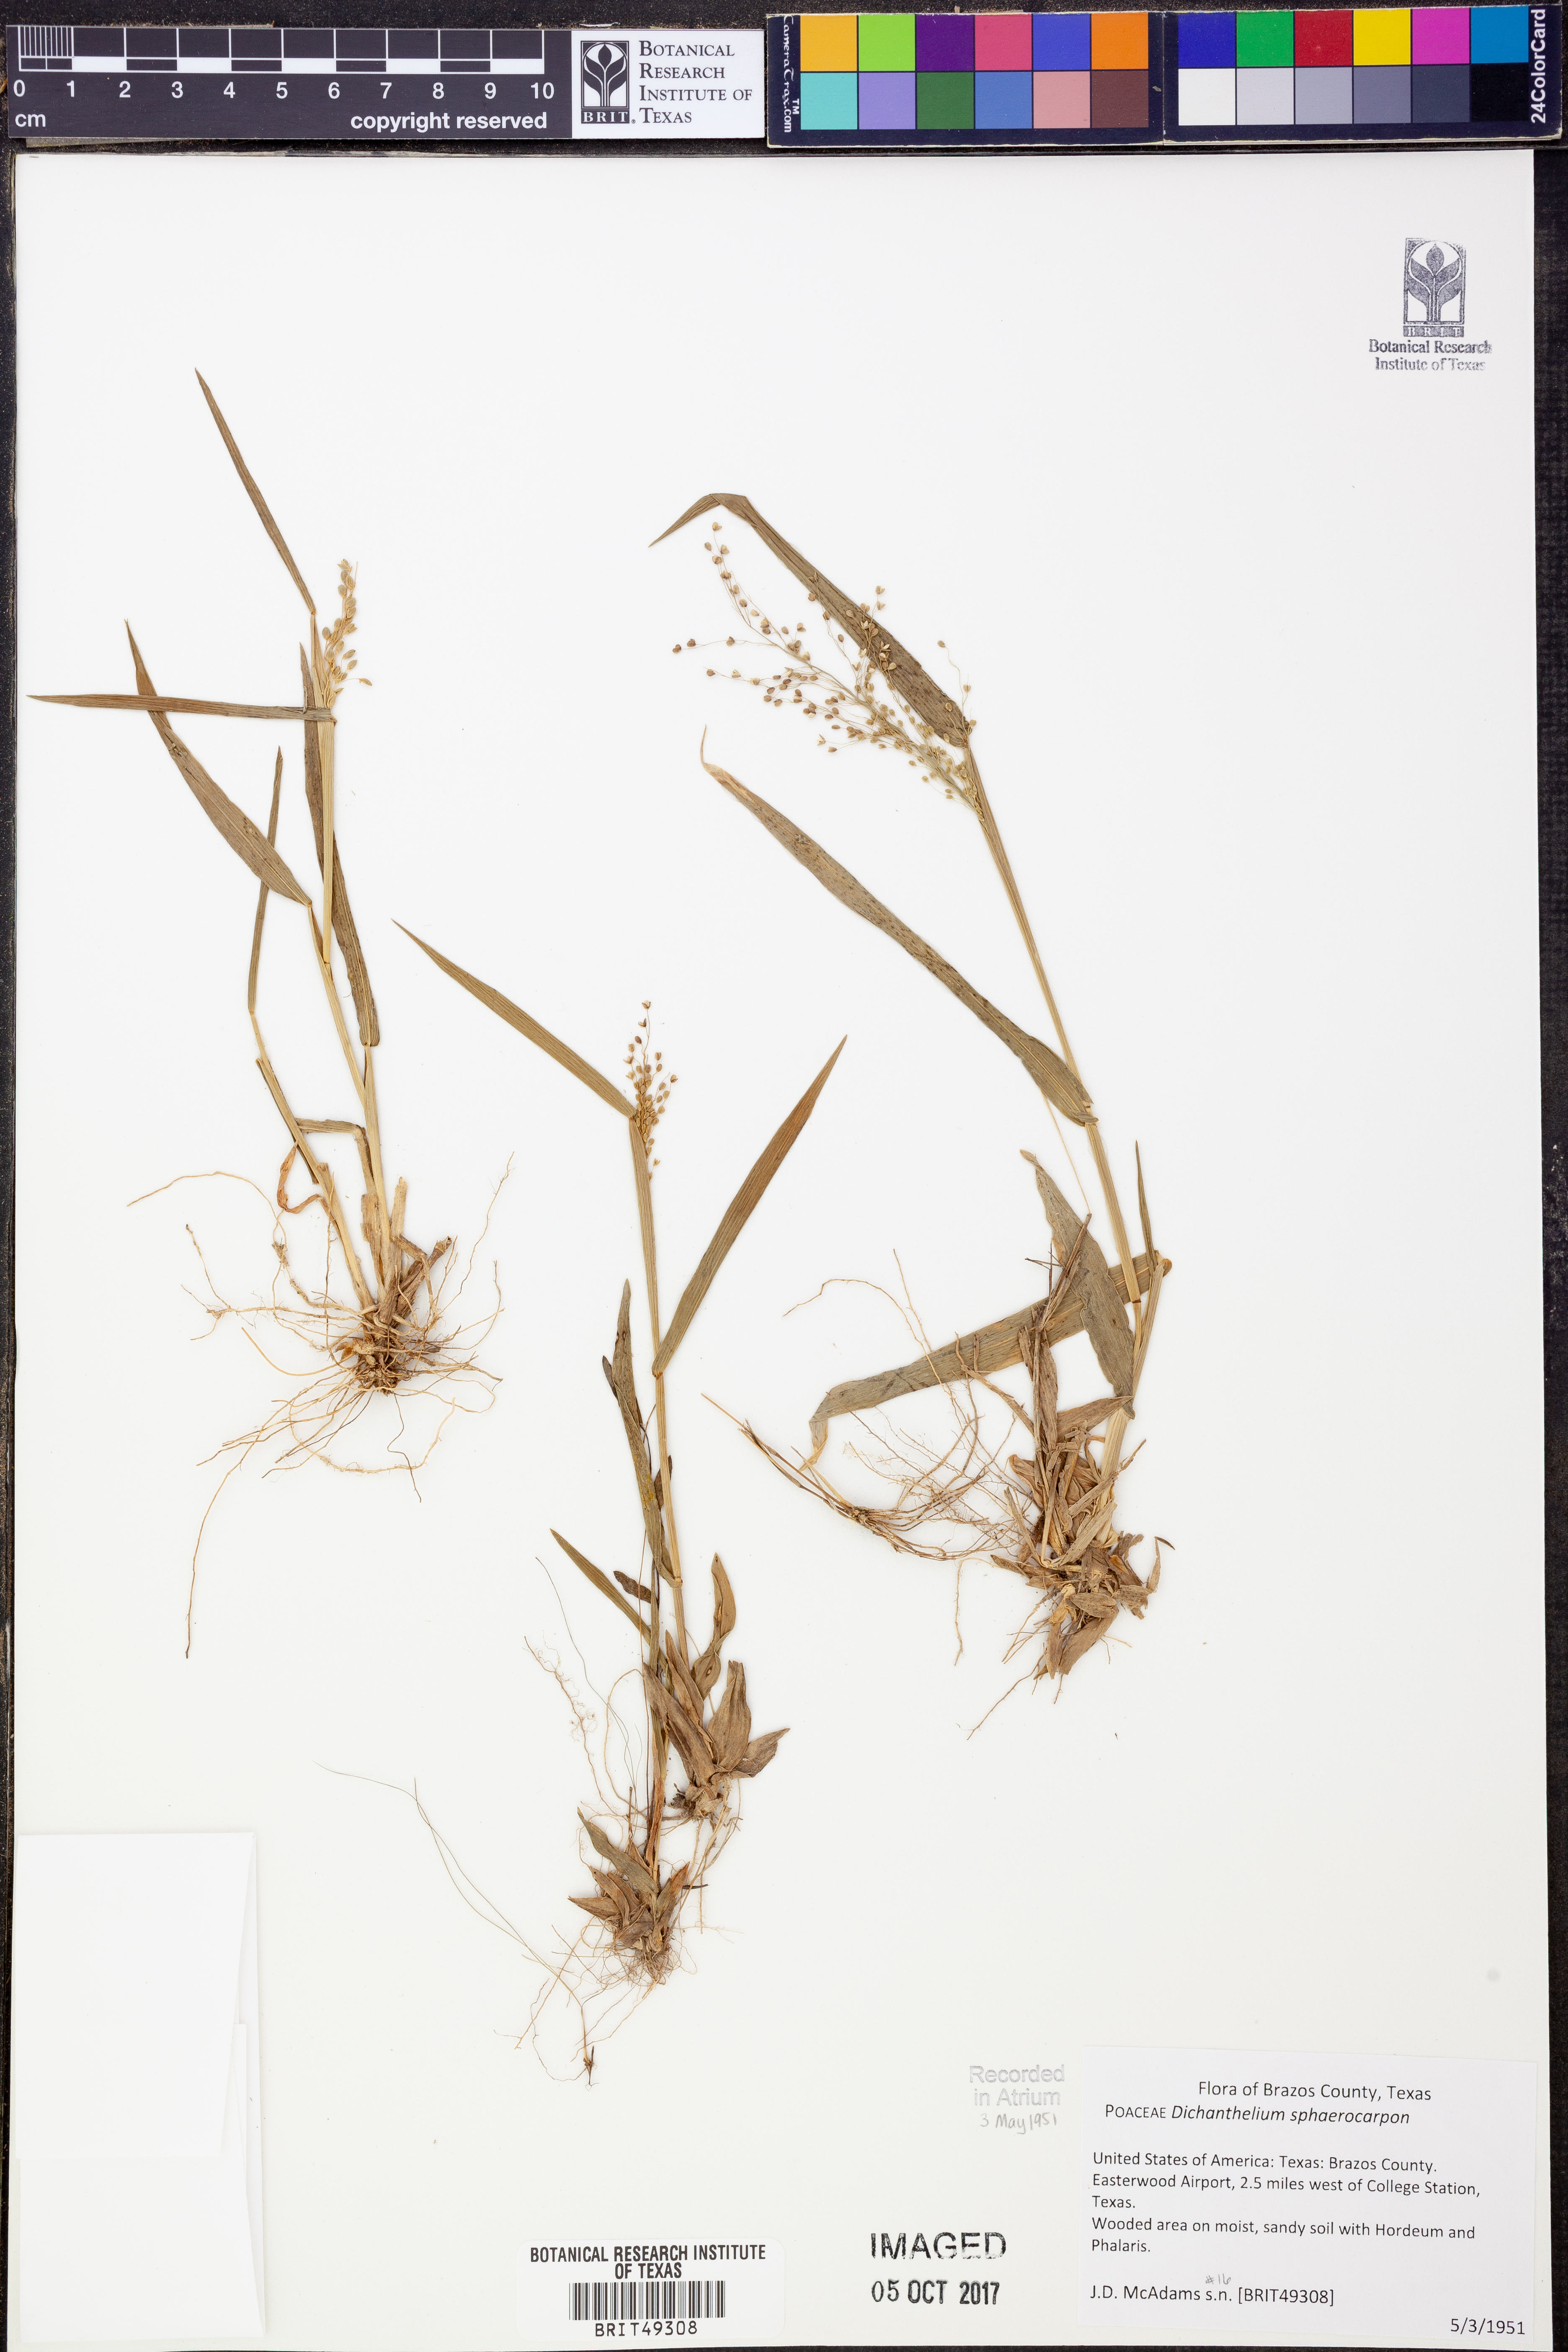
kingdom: Plantae
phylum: Tracheophyta
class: Liliopsida
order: Poales
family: Poaceae
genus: Dichanthelium
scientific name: Dichanthelium sphaerocarpon
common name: Round-fruited panicgrass
